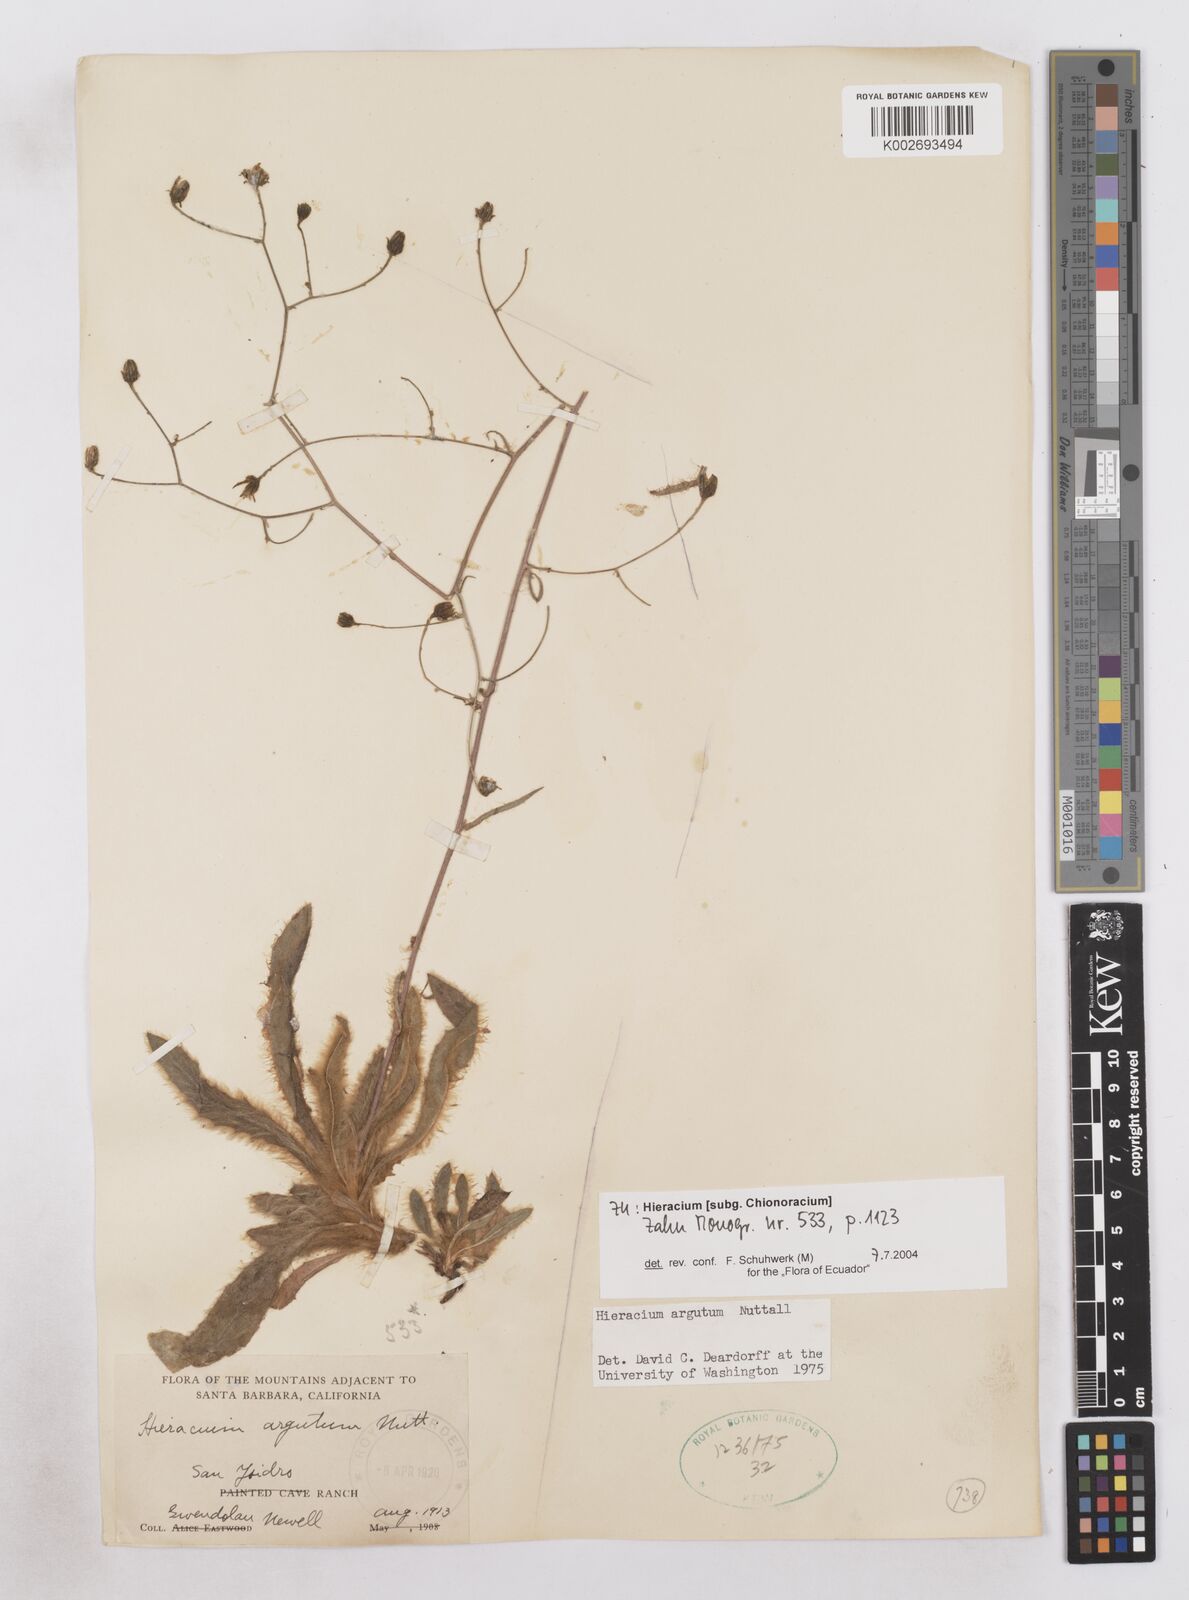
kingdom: Plantae
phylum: Tracheophyta
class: Magnoliopsida
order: Asterales
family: Asteraceae
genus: Hieracium
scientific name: Hieracium argutum
